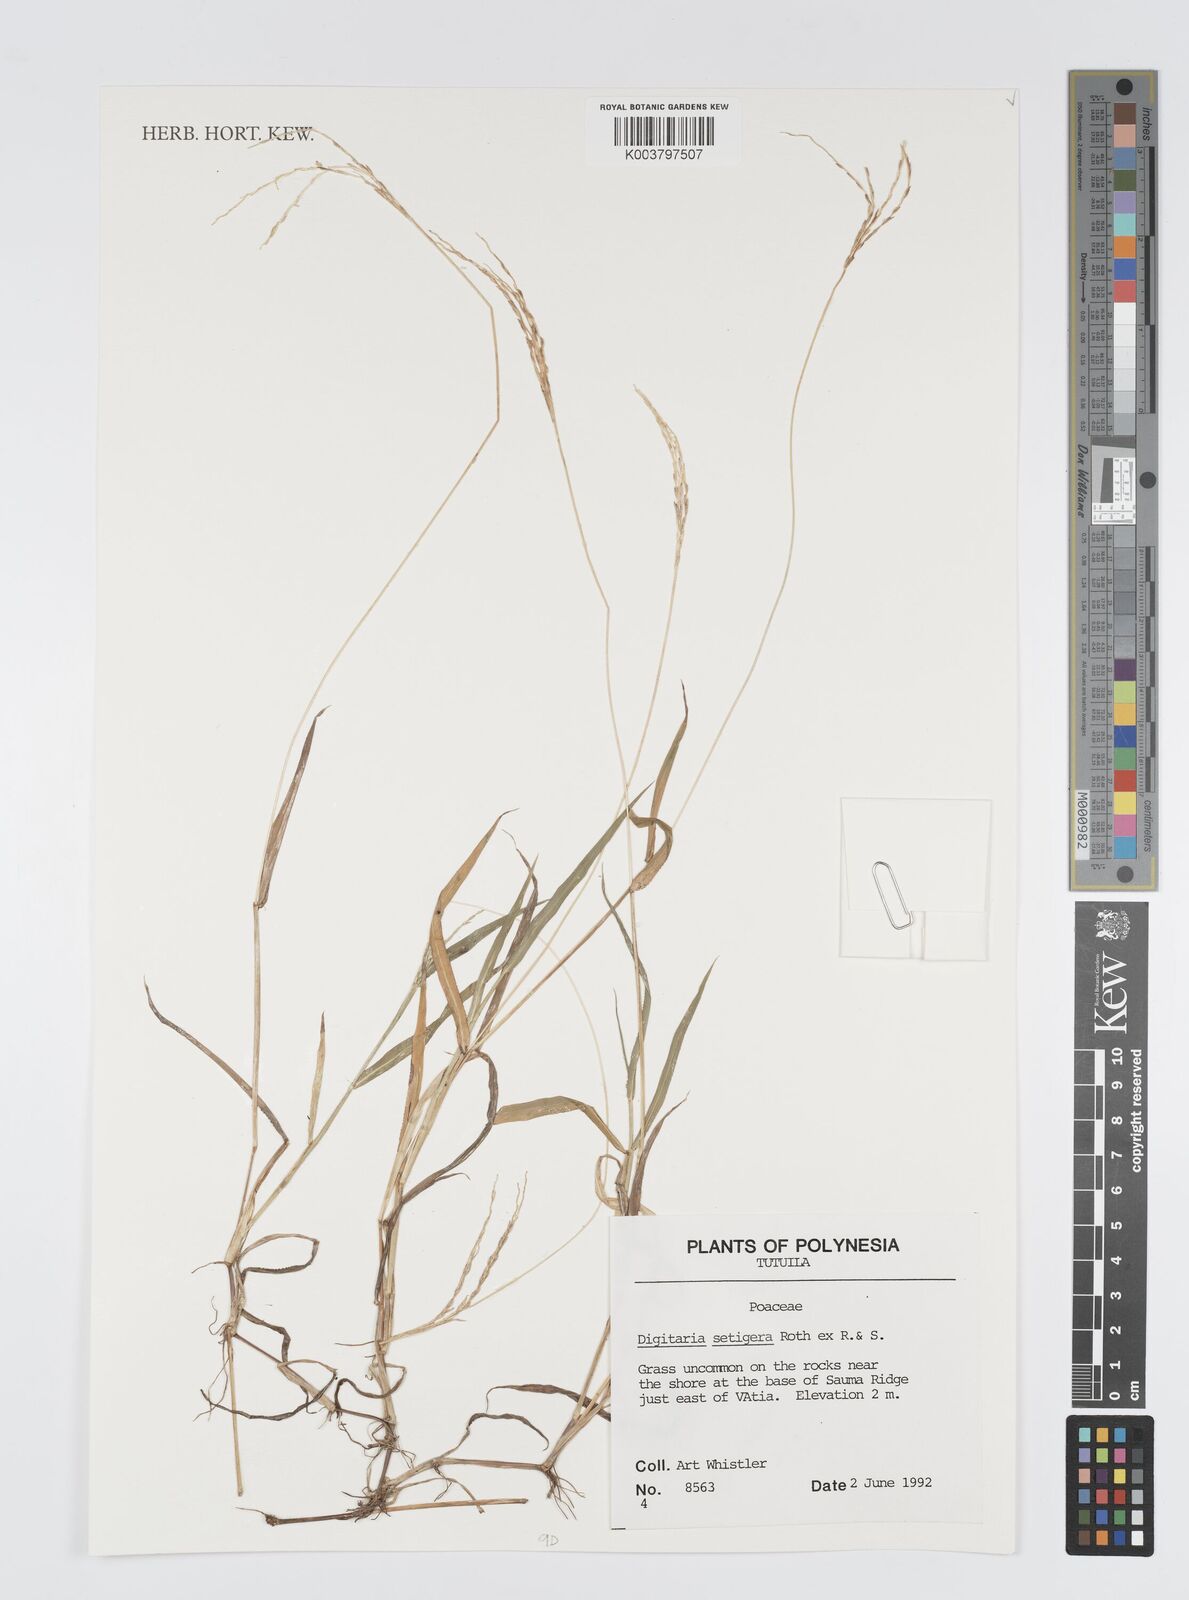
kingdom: Plantae
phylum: Tracheophyta
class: Liliopsida
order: Poales
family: Poaceae
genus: Digitaria
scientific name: Digitaria setigera
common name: East indian crabgrass
